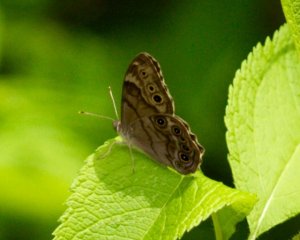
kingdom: Animalia
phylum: Arthropoda
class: Insecta
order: Lepidoptera
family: Nymphalidae
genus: Lethe
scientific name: Lethe anthedon
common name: Northern Pearly-Eye
